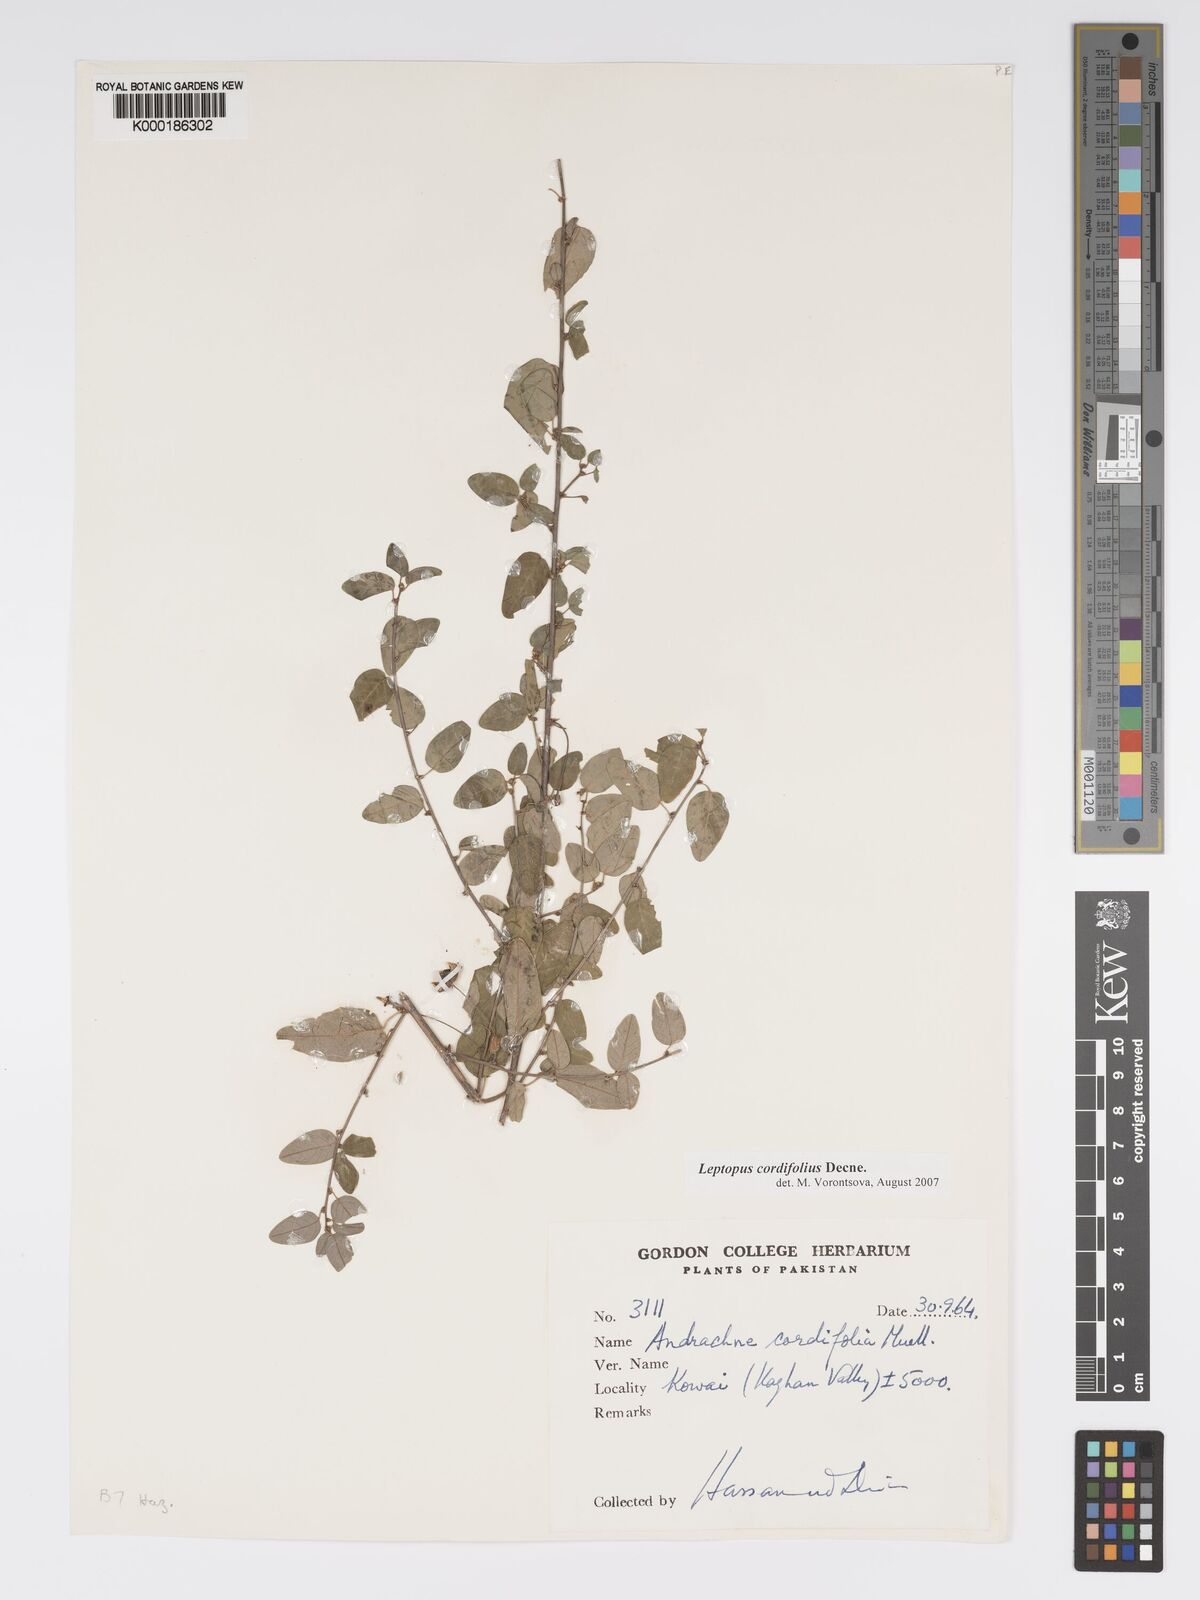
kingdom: Plantae
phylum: Tracheophyta
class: Magnoliopsida
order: Malpighiales
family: Phyllanthaceae
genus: Leptopus
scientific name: Leptopus cordifolius
